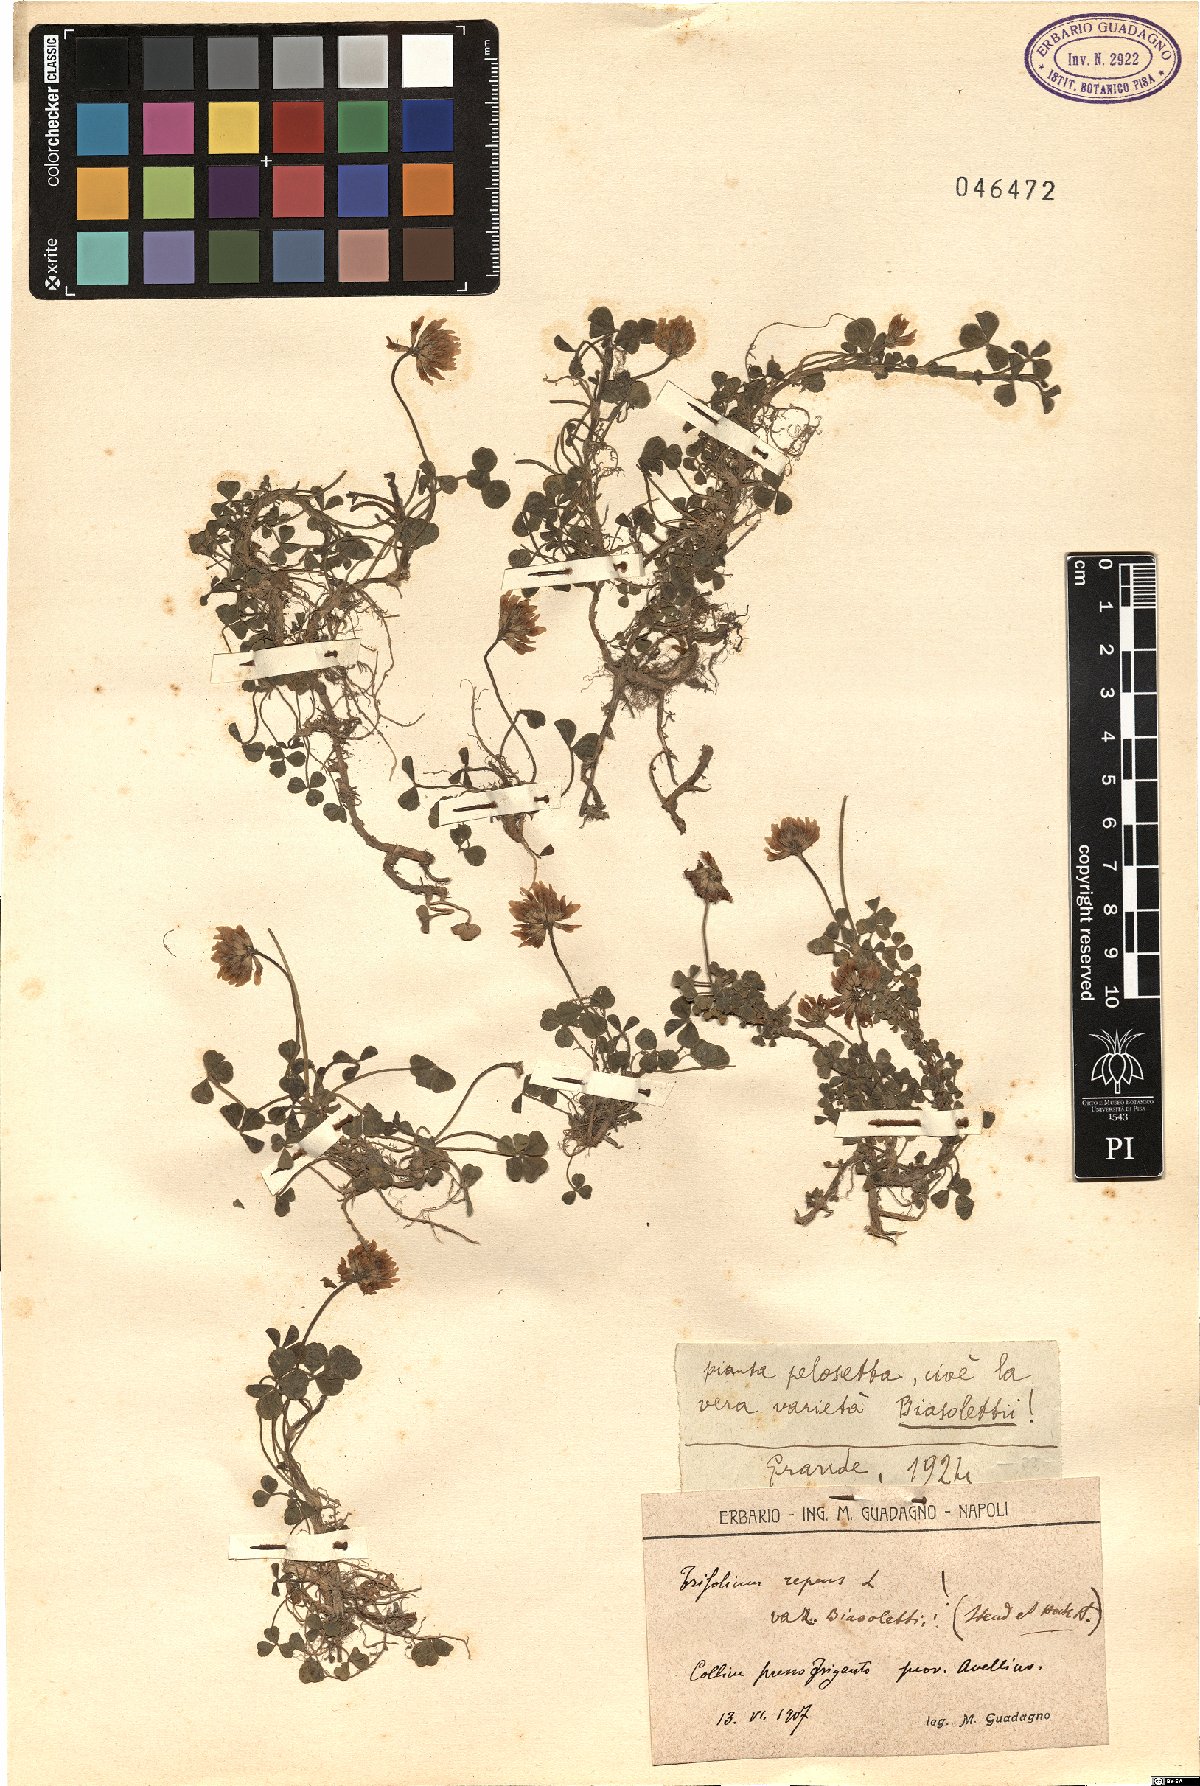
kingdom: Plantae
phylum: Tracheophyta
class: Magnoliopsida
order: Fabales
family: Fabaceae
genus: Trifolium
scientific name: Trifolium repens
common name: White clover
